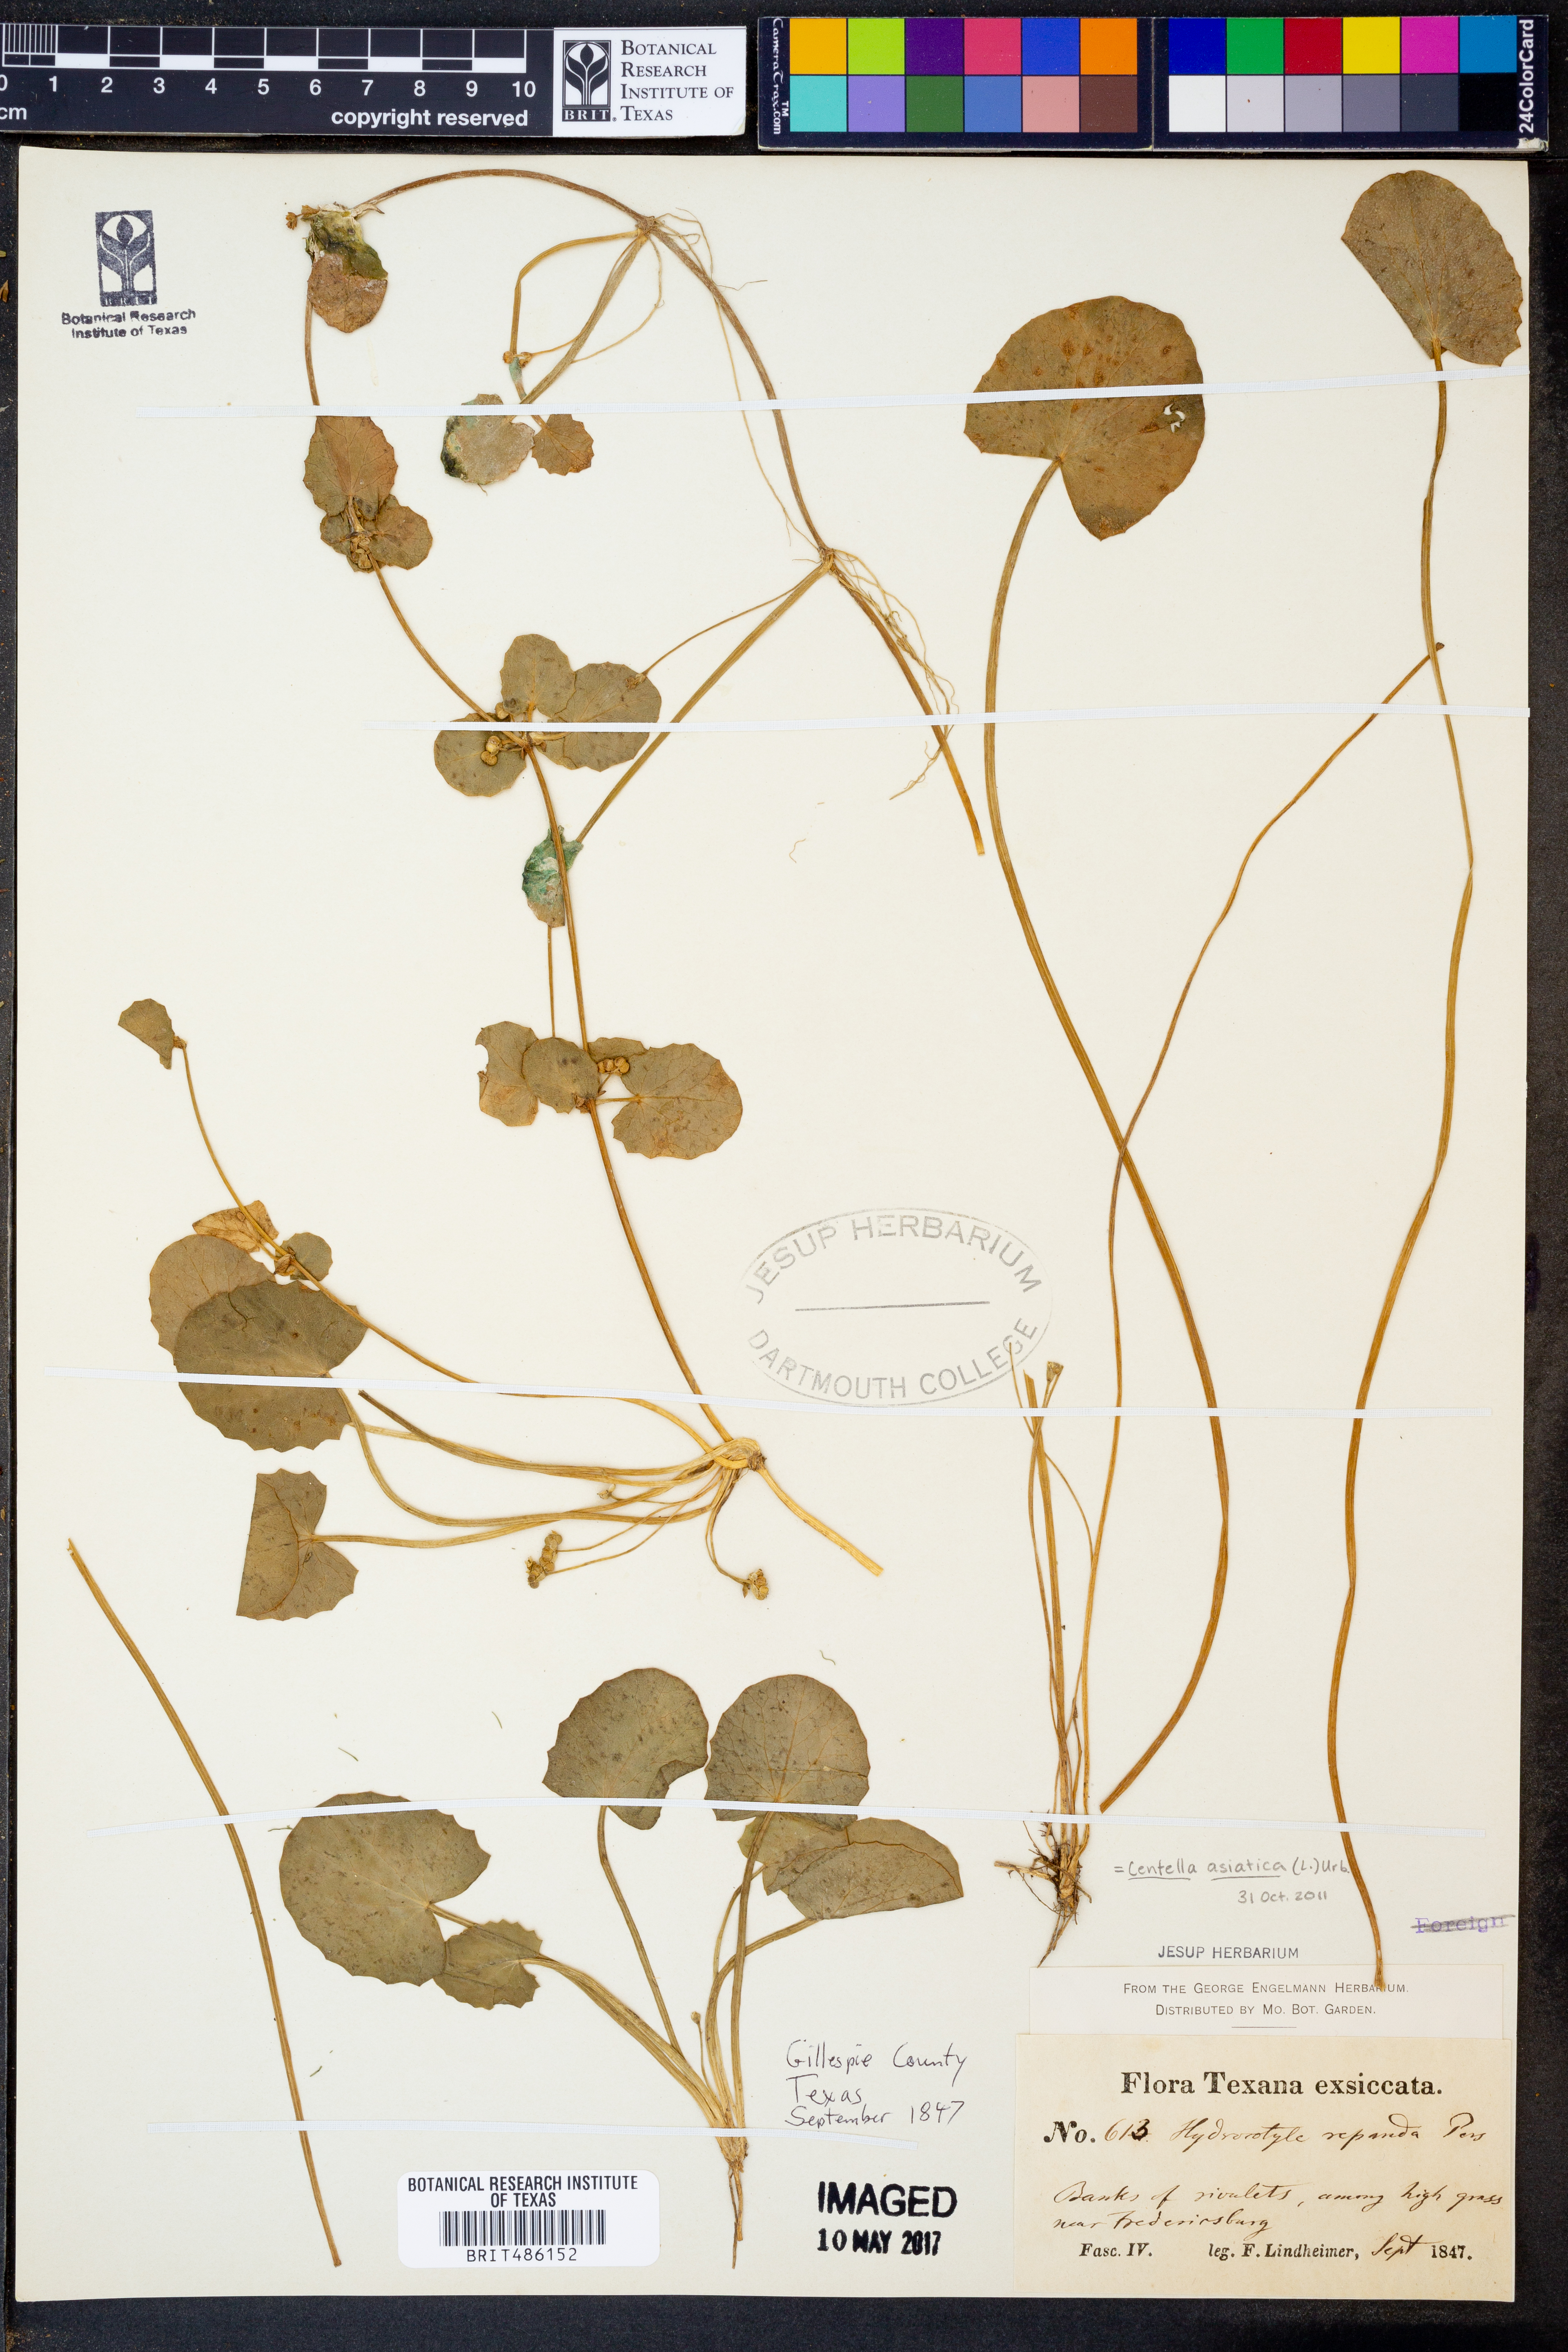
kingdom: Plantae
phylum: Tracheophyta
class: Magnoliopsida
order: Apiales
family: Apiaceae
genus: Centella
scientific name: Centella asiatica
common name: Spadeleaf
